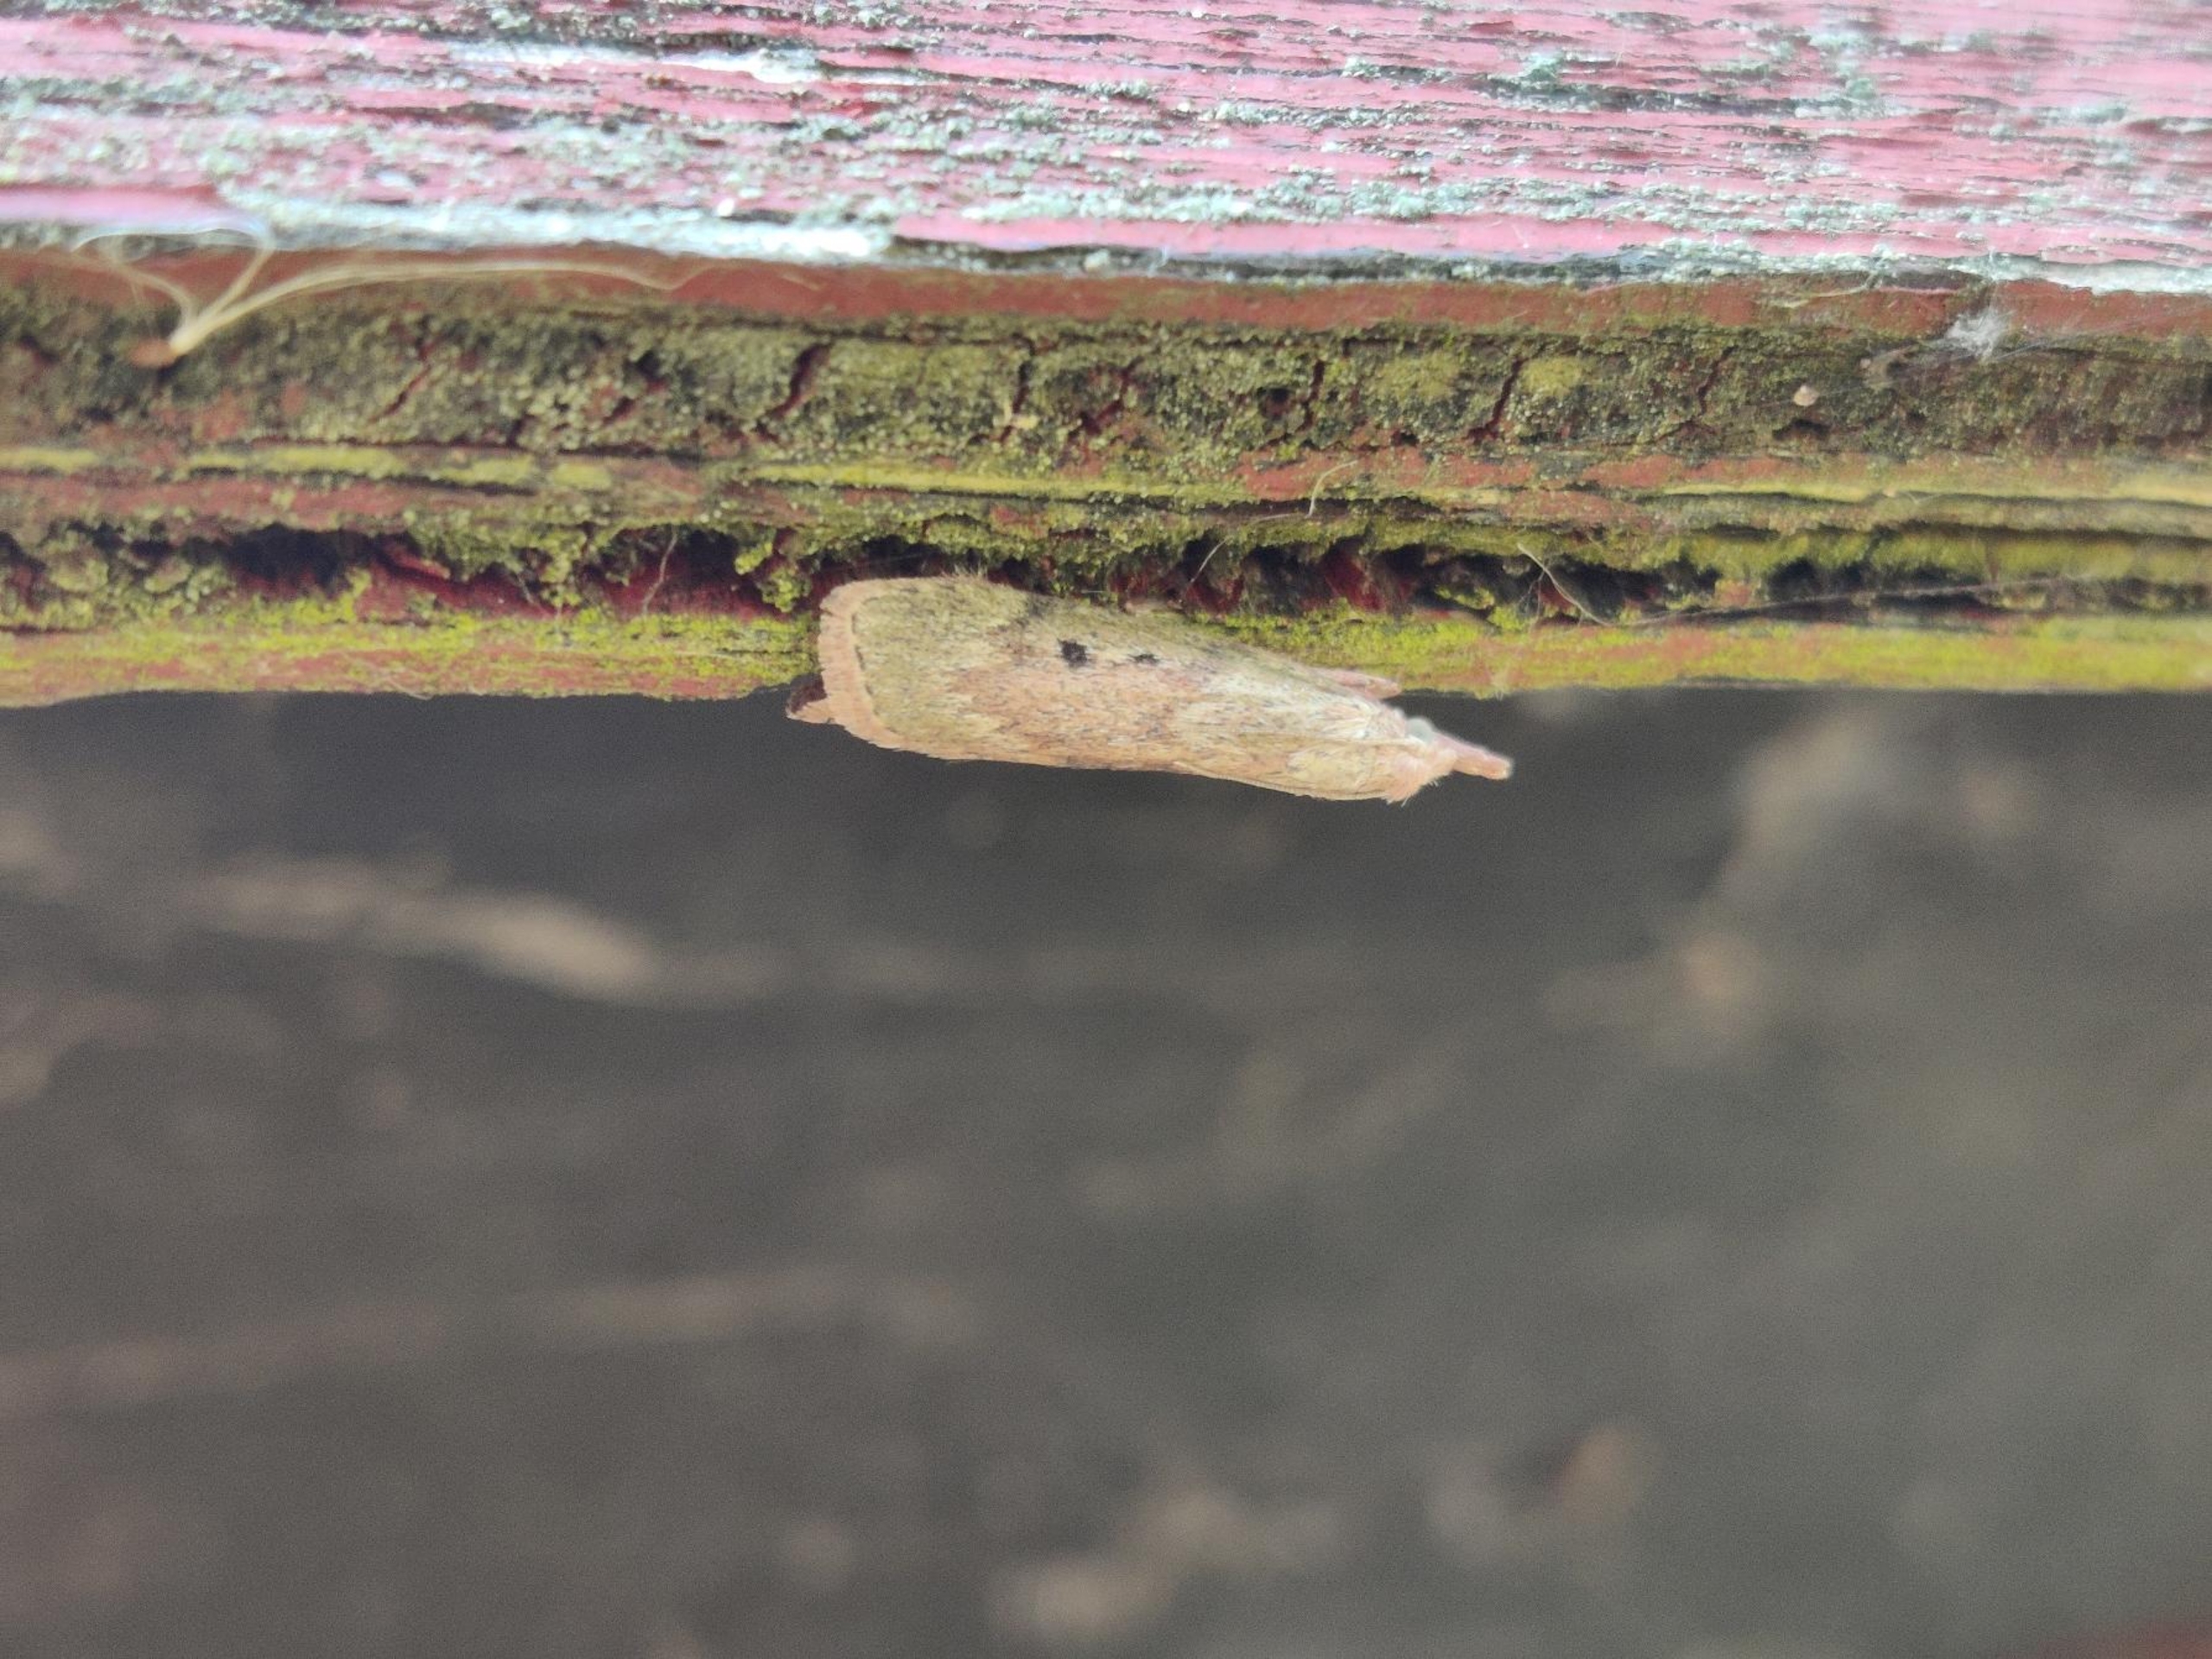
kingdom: Animalia
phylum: Arthropoda
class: Insecta
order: Lepidoptera
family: Pyralidae
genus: Aphomia
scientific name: Aphomia sociella
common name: Humlevoksmøl
